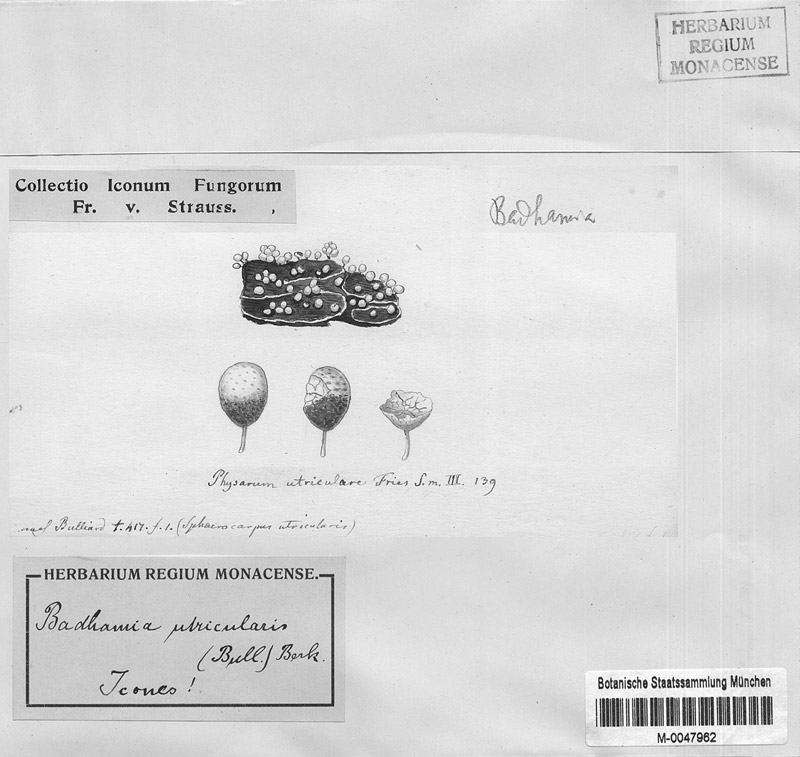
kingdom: Protozoa
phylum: Mycetozoa
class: Myxomycetes
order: Physarales
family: Physaraceae
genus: Badhamia
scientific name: Badhamia utricularis
